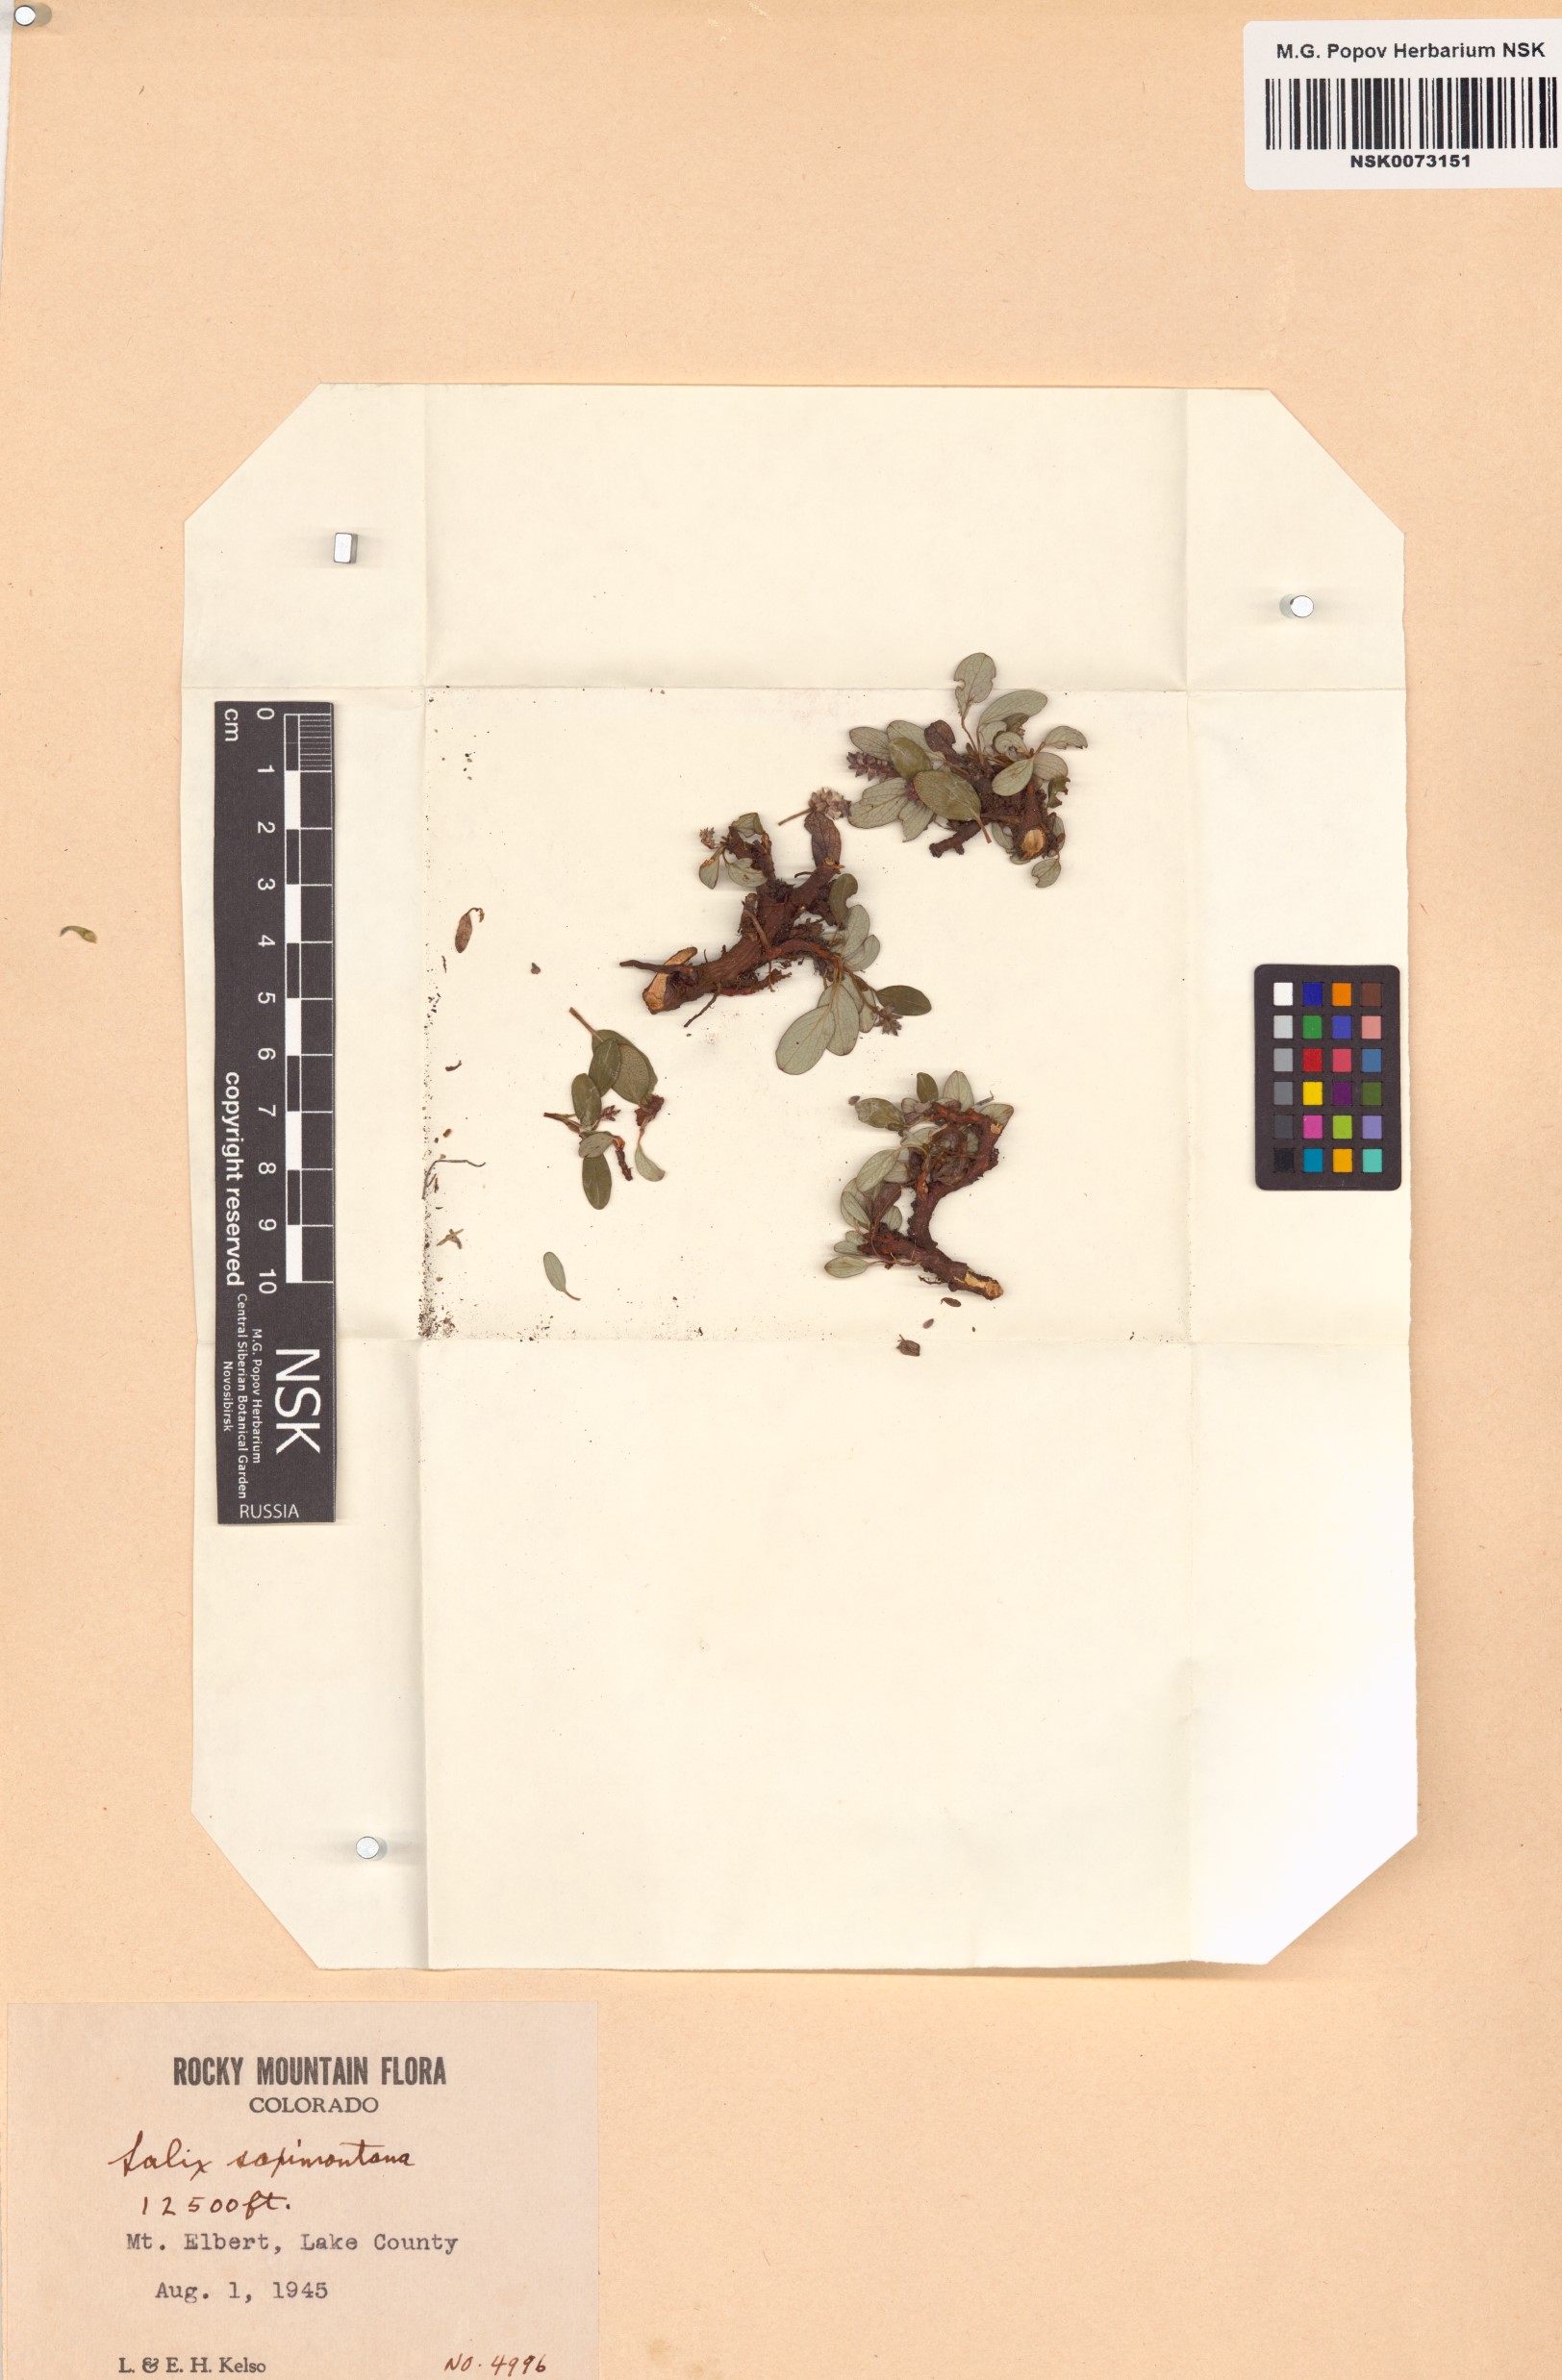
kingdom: Plantae
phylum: Tracheophyta
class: Magnoliopsida
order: Malpighiales
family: Salicaceae
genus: Salix
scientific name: Salix nivalis
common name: Dwarf snow willow
